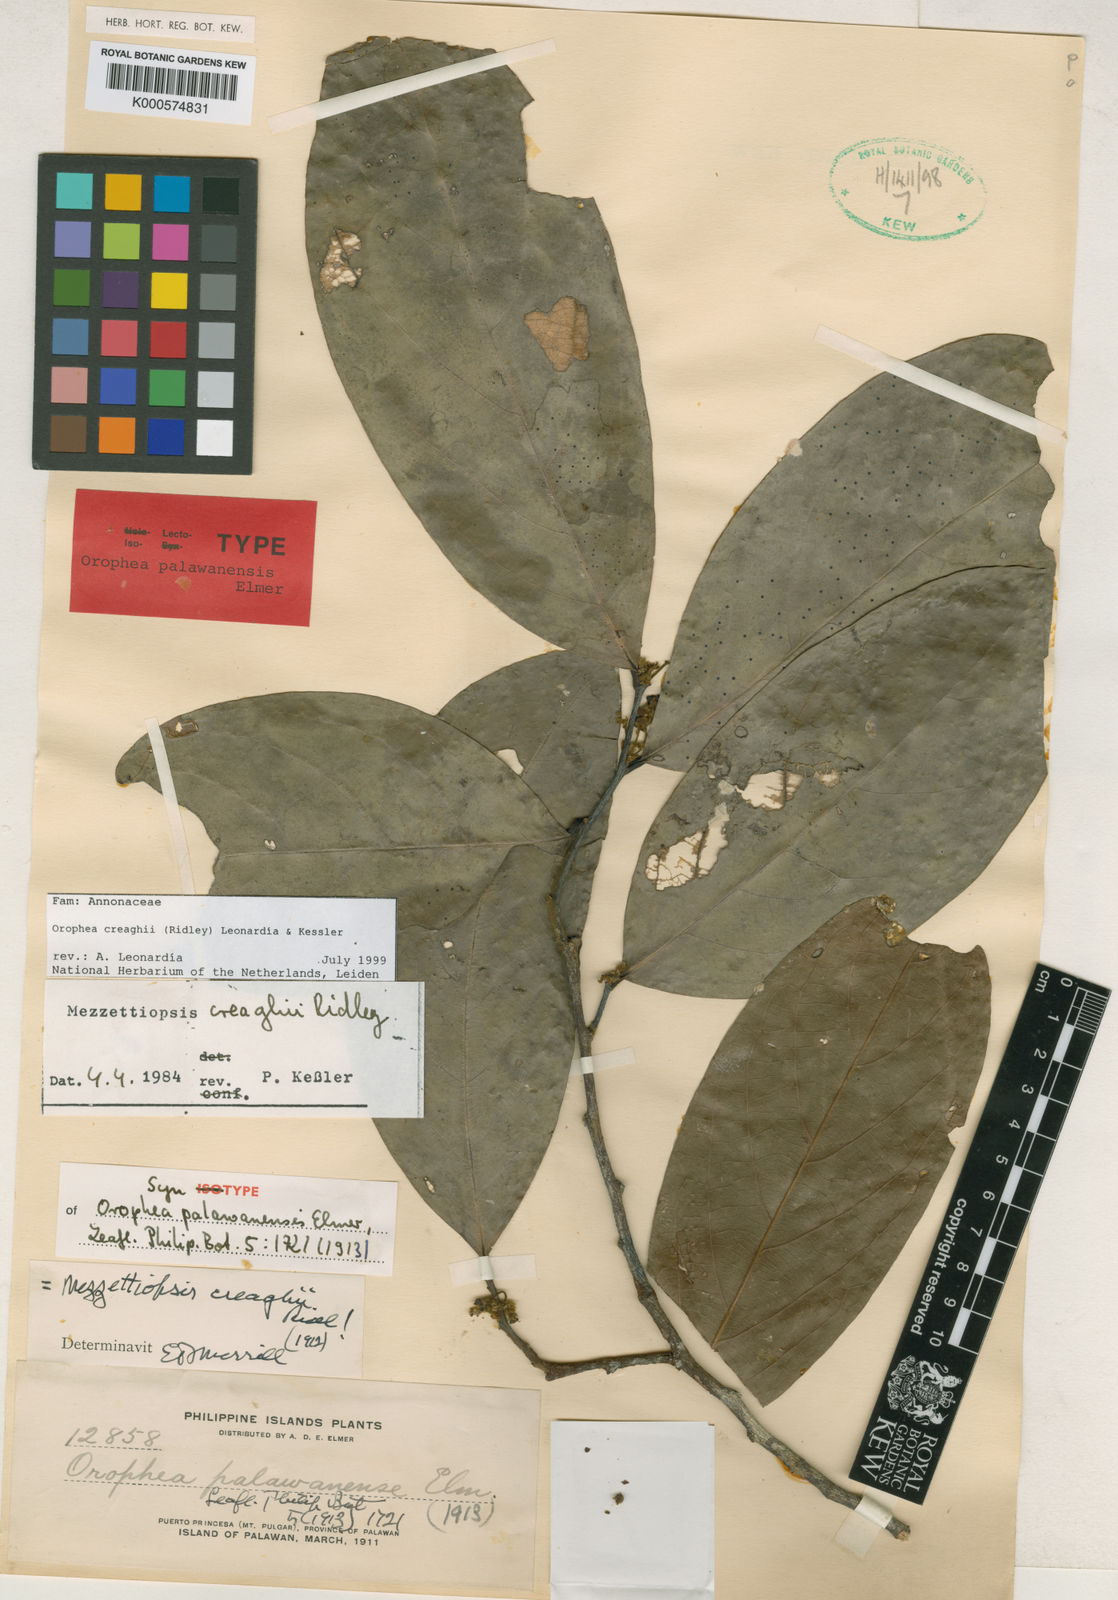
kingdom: Plantae
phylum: Tracheophyta
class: Magnoliopsida
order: Magnoliales
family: Annonaceae
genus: Orophea
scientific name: Orophea
